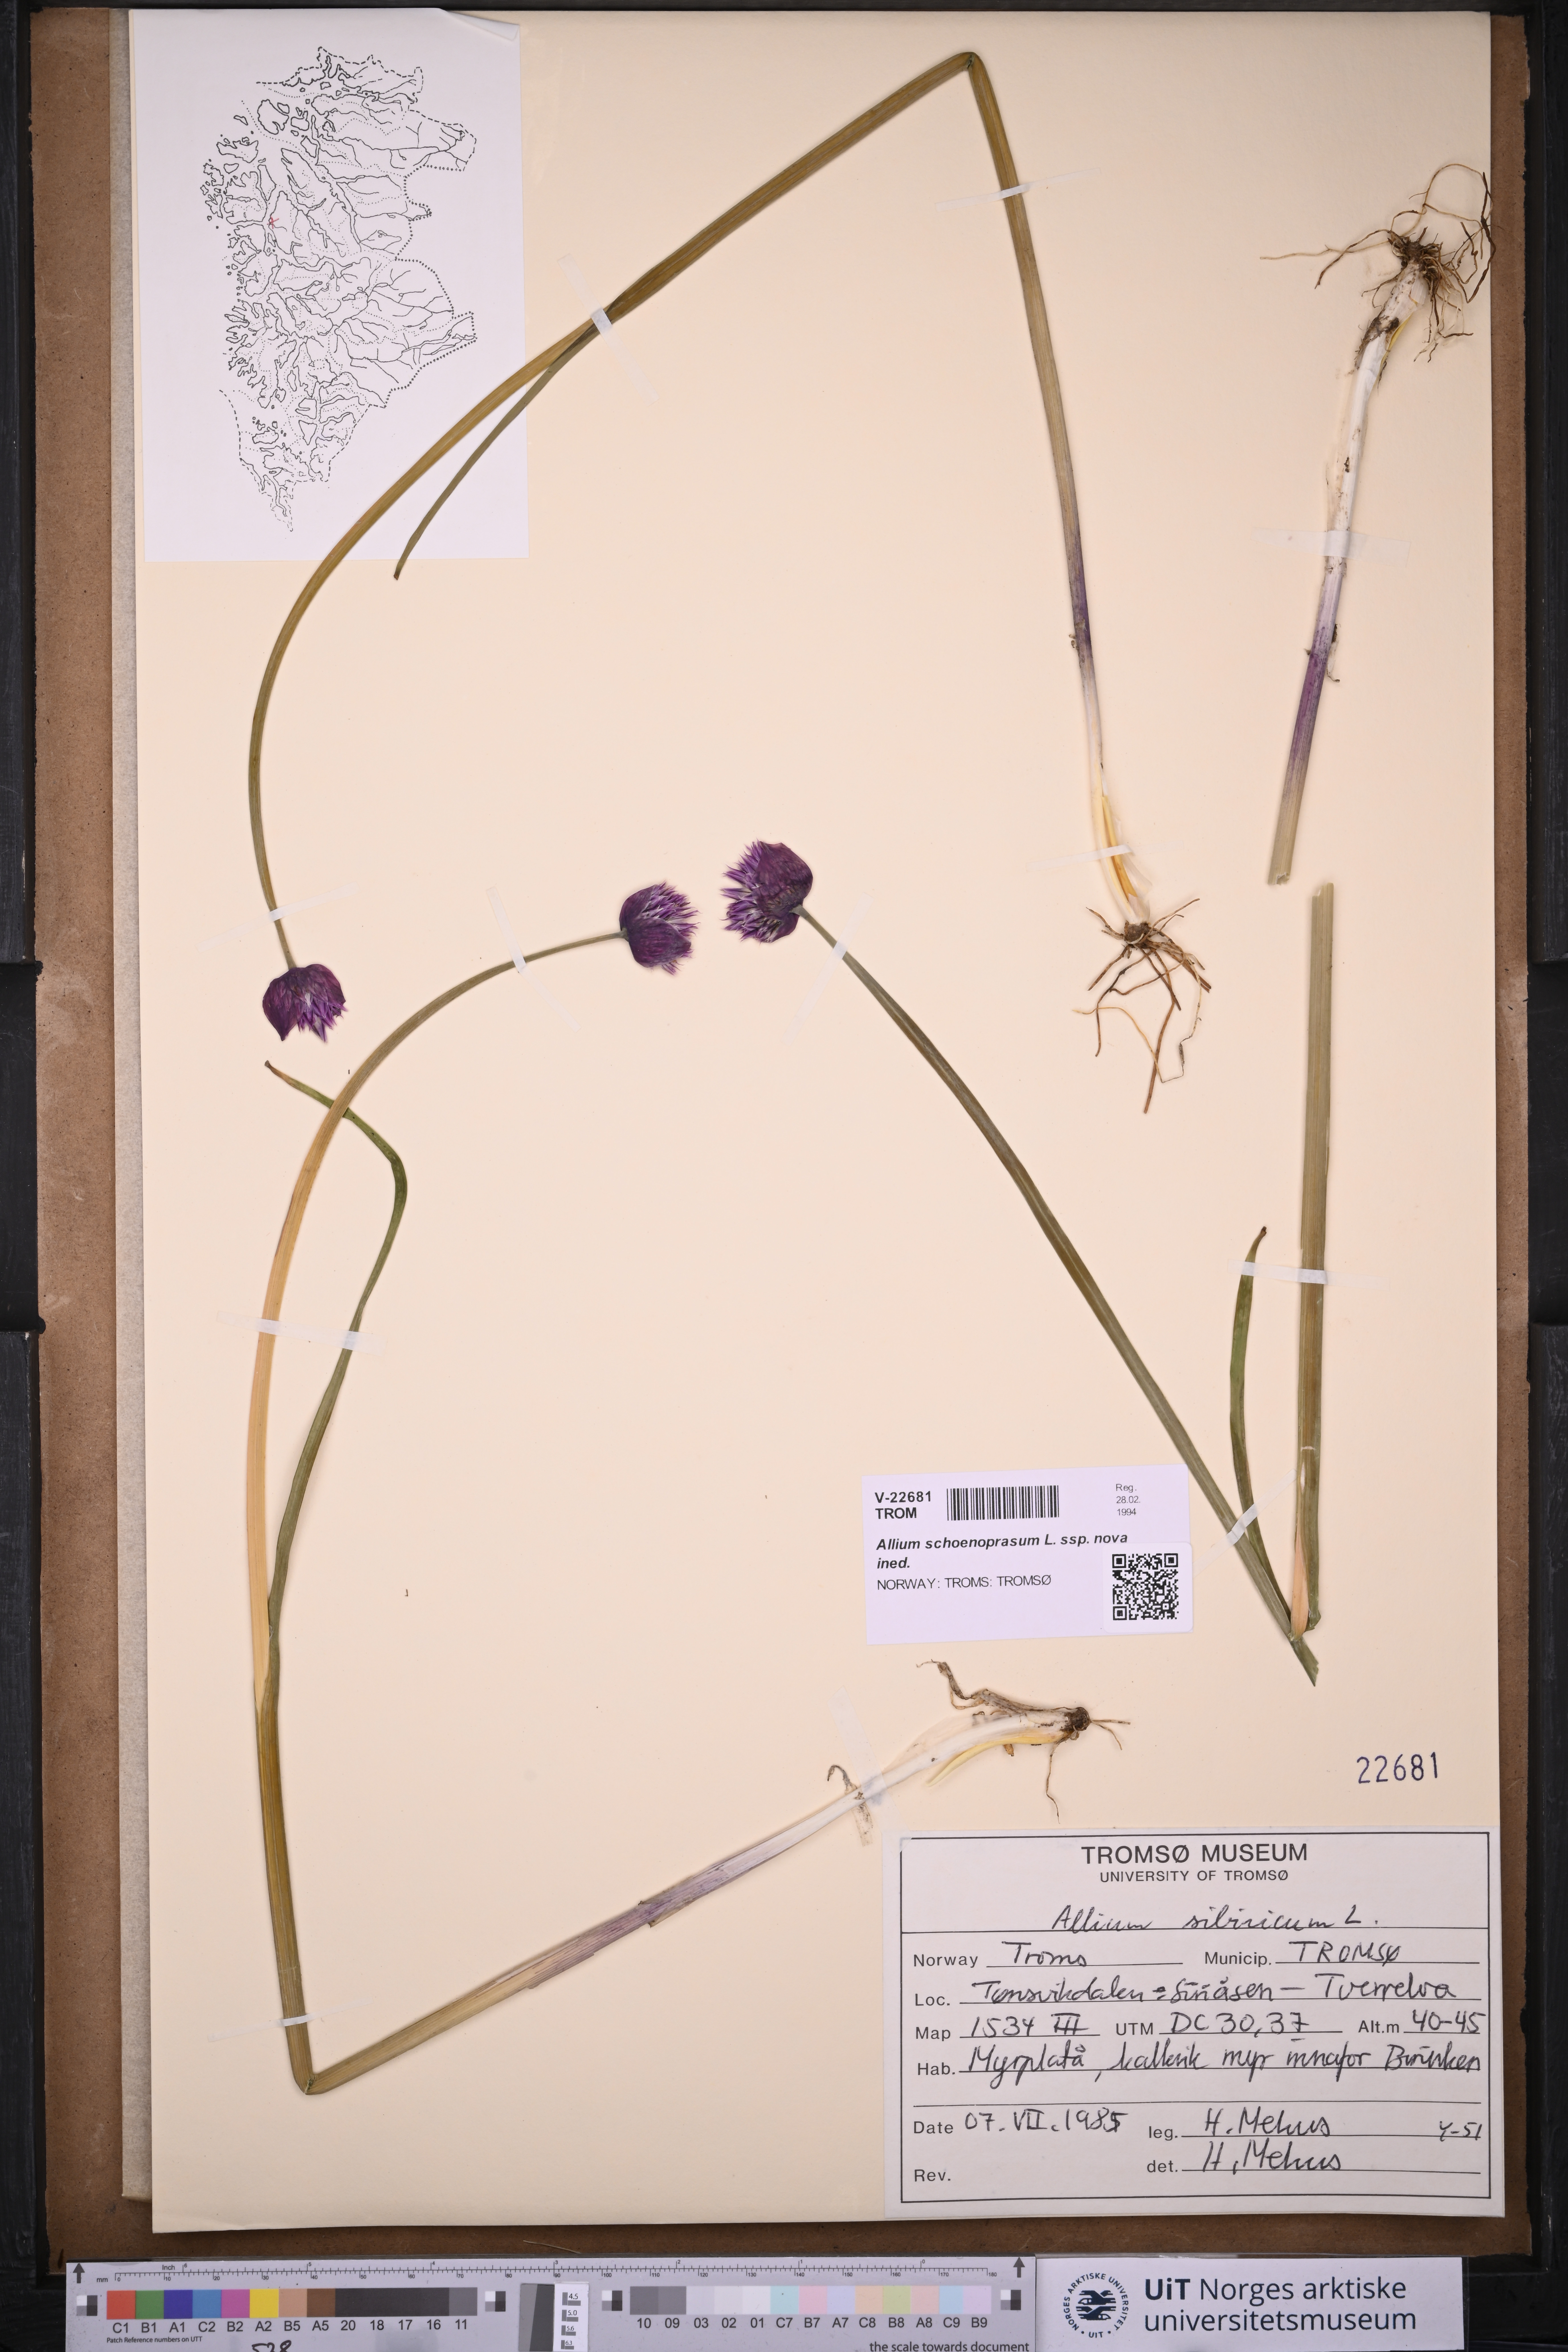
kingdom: Plantae
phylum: Tracheophyta
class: Liliopsida
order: Asparagales
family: Amaryllidaceae
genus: Allium
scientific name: Allium schoenoprasum
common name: Chives
